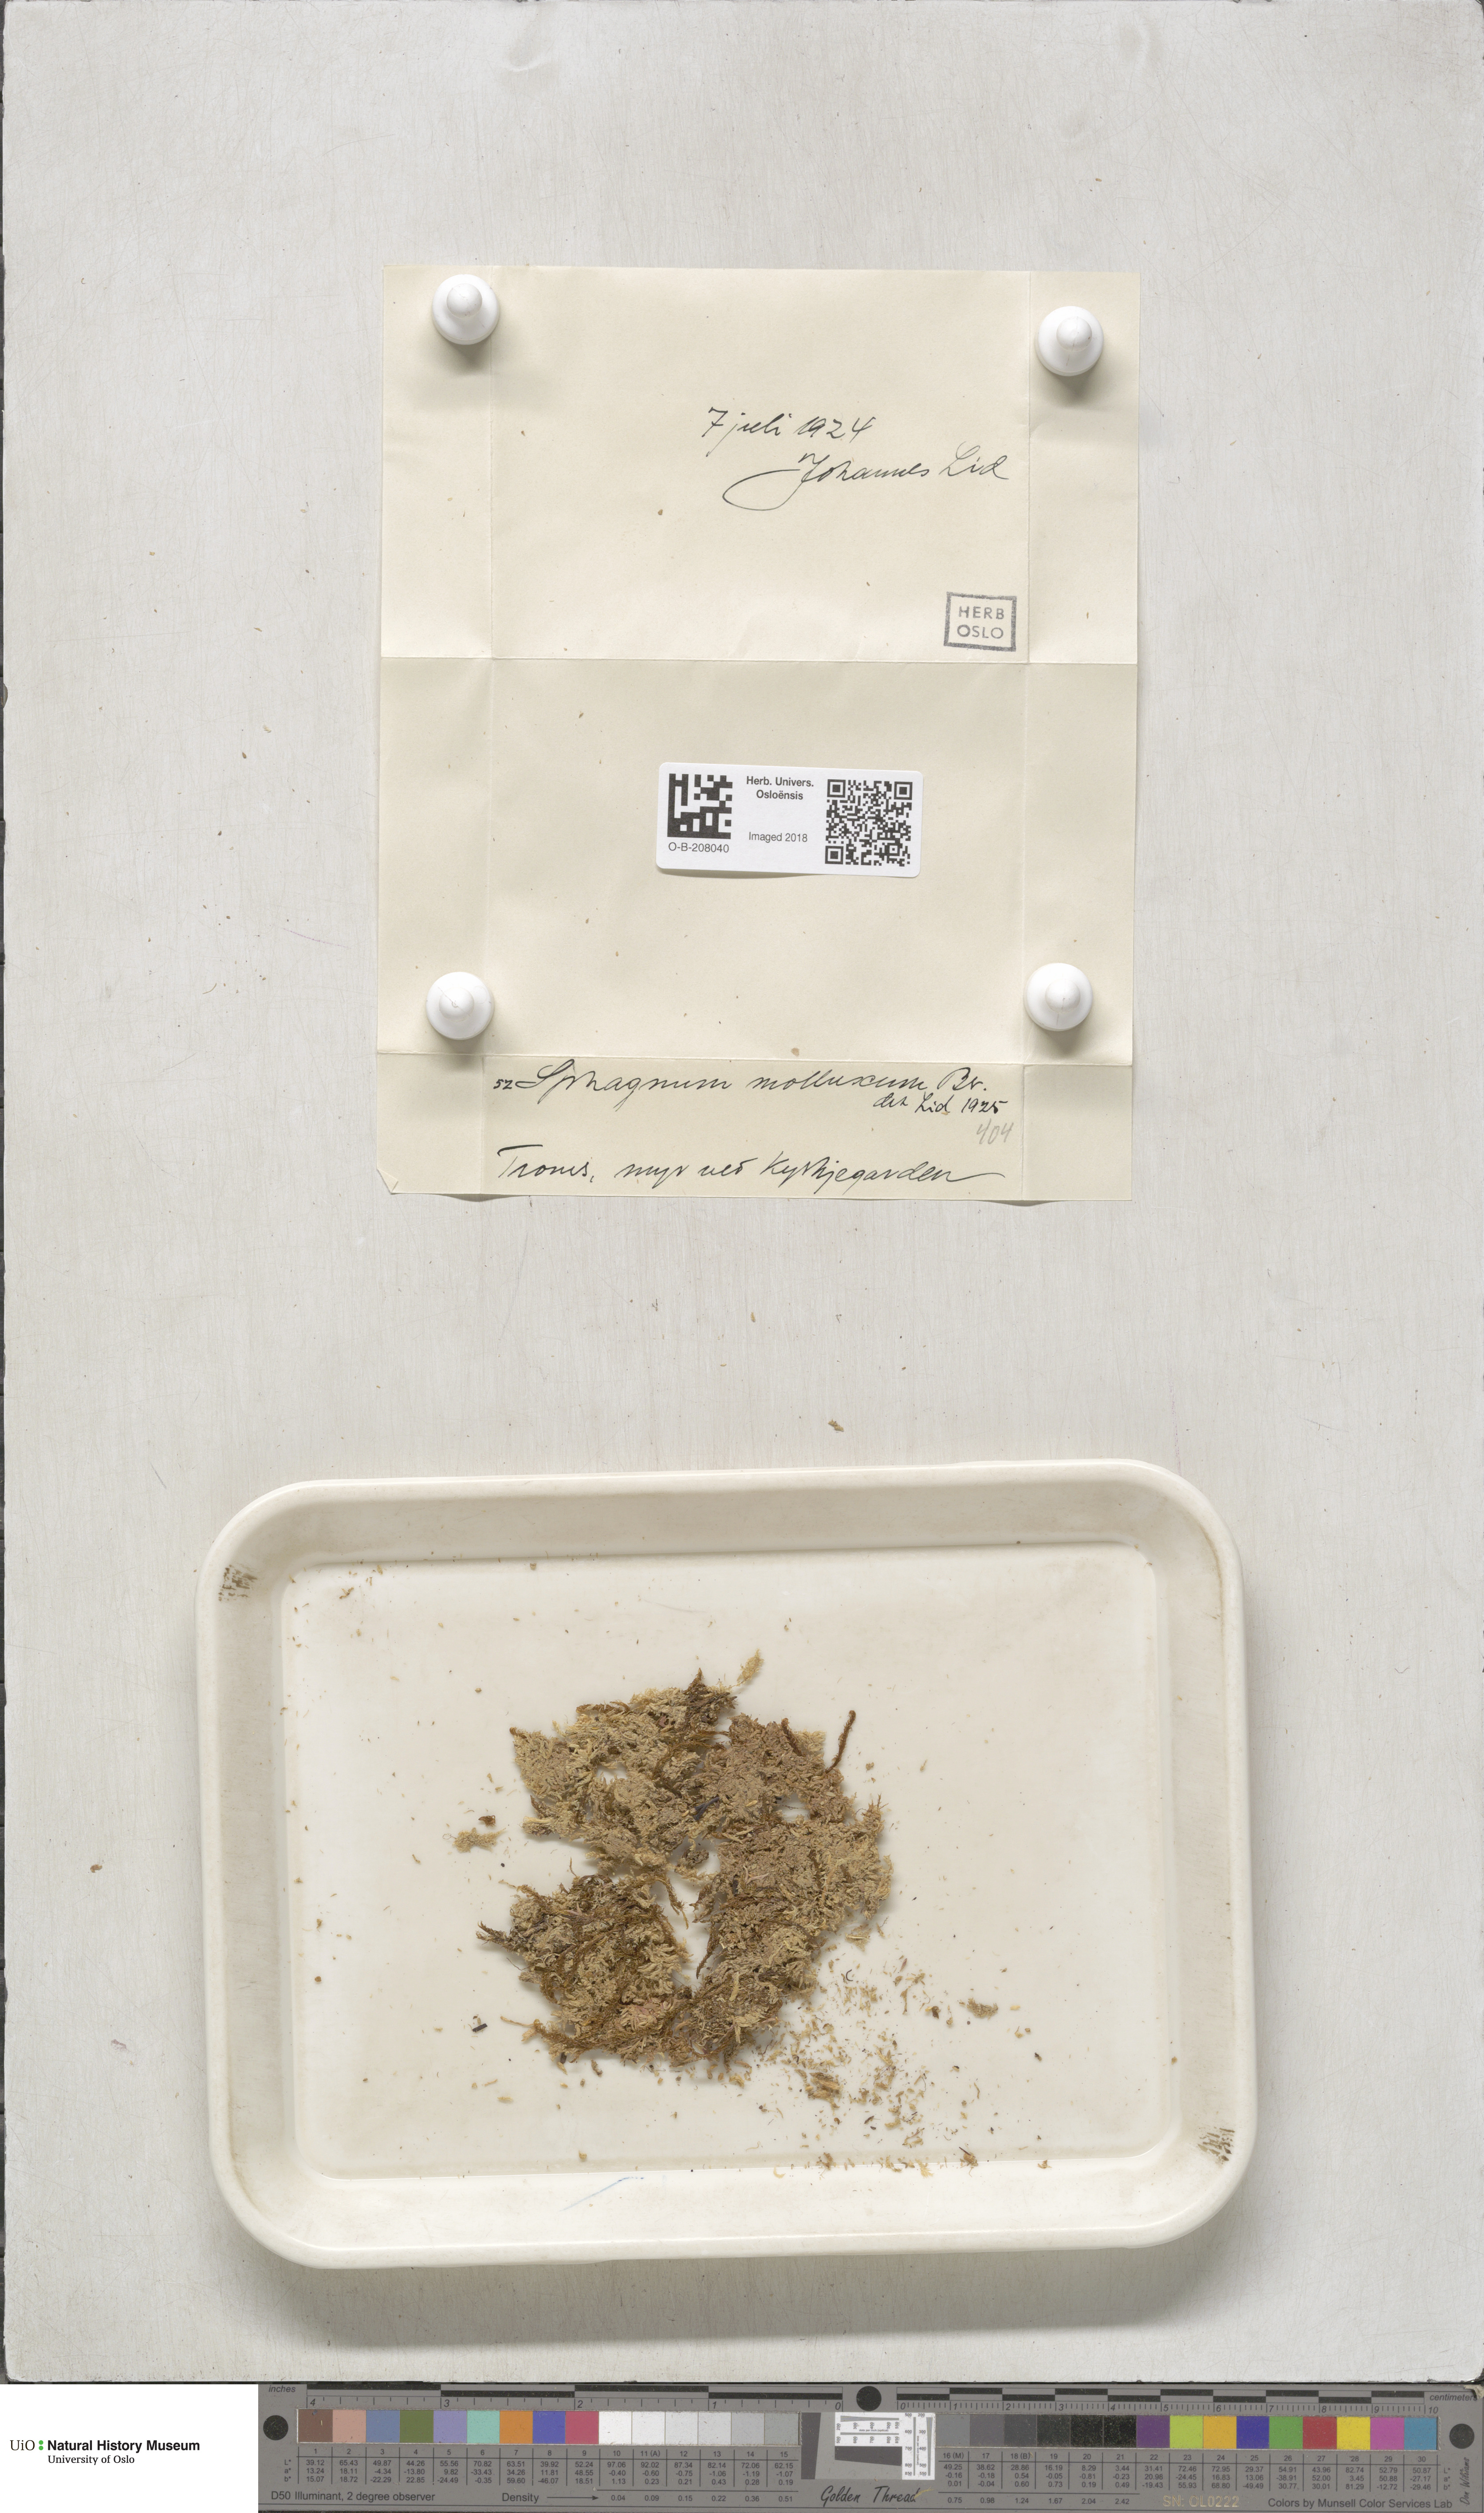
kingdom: Plantae
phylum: Bryophyta
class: Sphagnopsida
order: Sphagnales
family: Sphagnaceae
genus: Sphagnum
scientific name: Sphagnum tenellum
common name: Soft bog-moss
